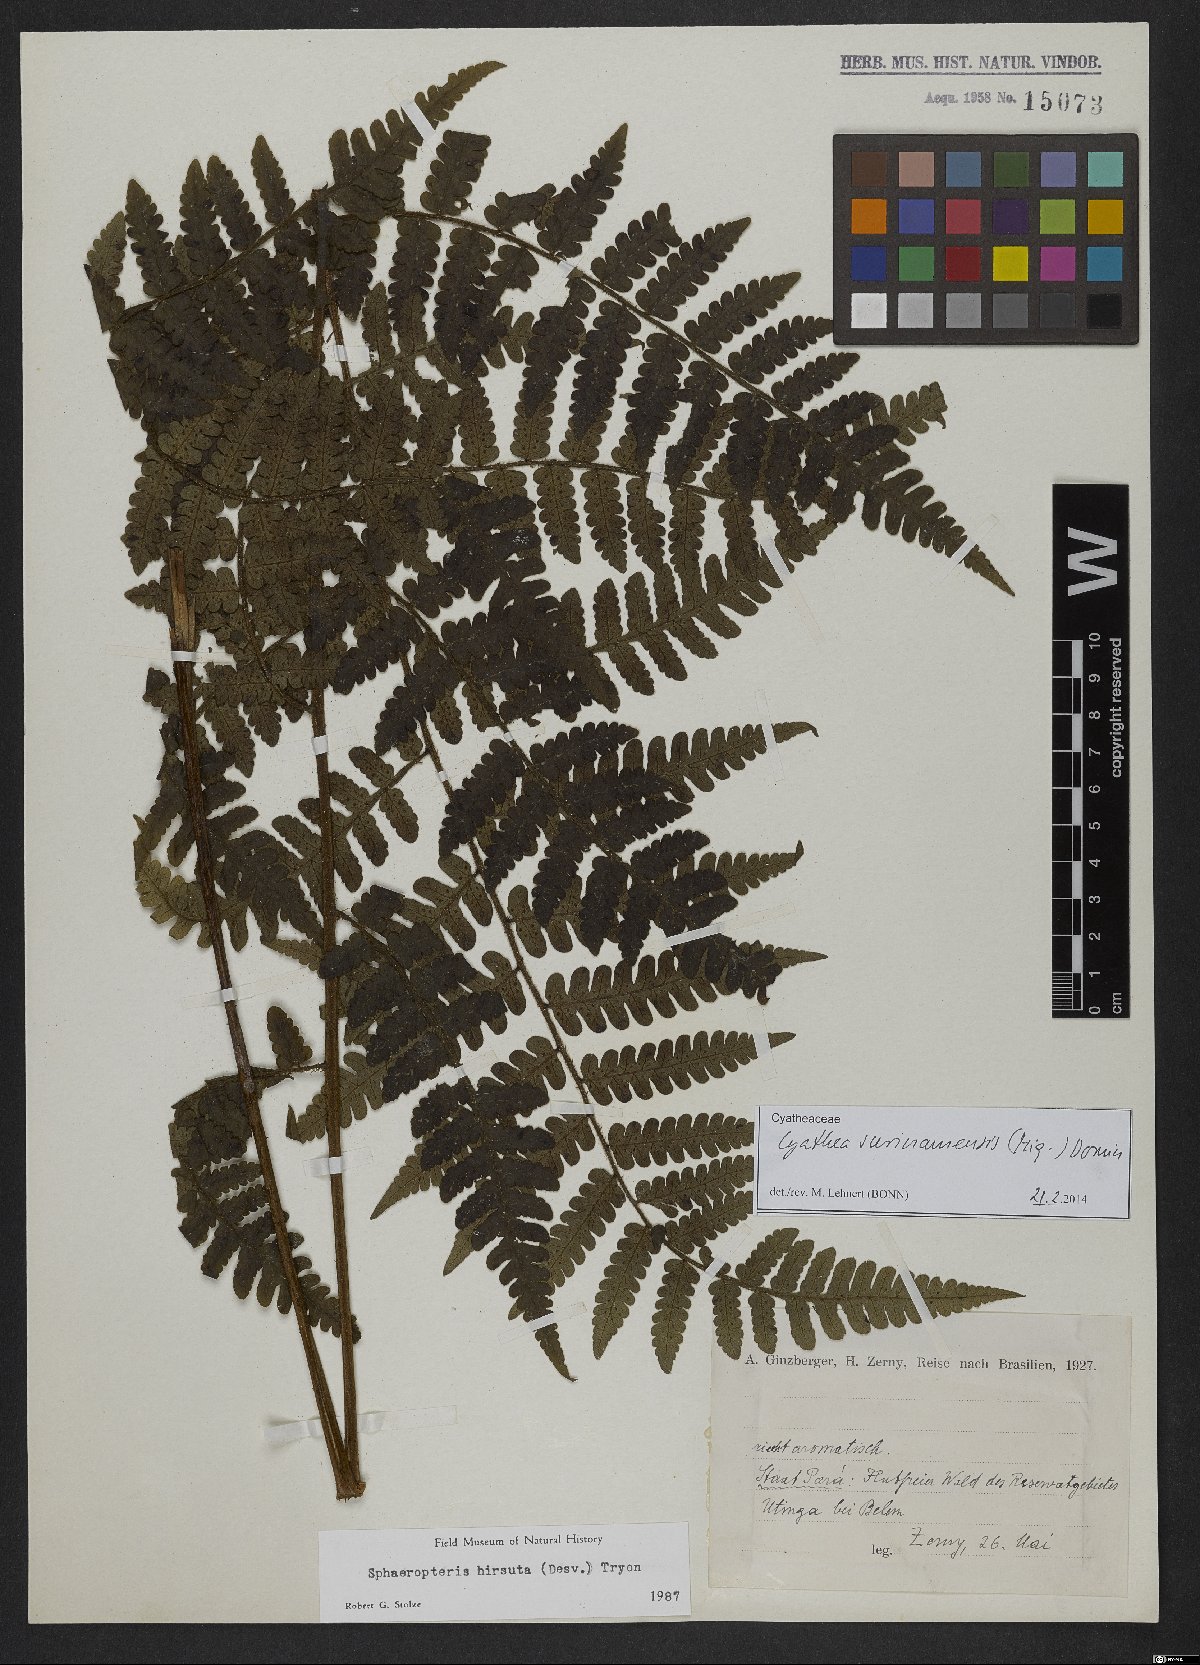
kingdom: Plantae
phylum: Tracheophyta
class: Polypodiopsida
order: Cyatheales
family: Cyatheaceae
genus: Cyathea
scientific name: Cyathea surinamensis
